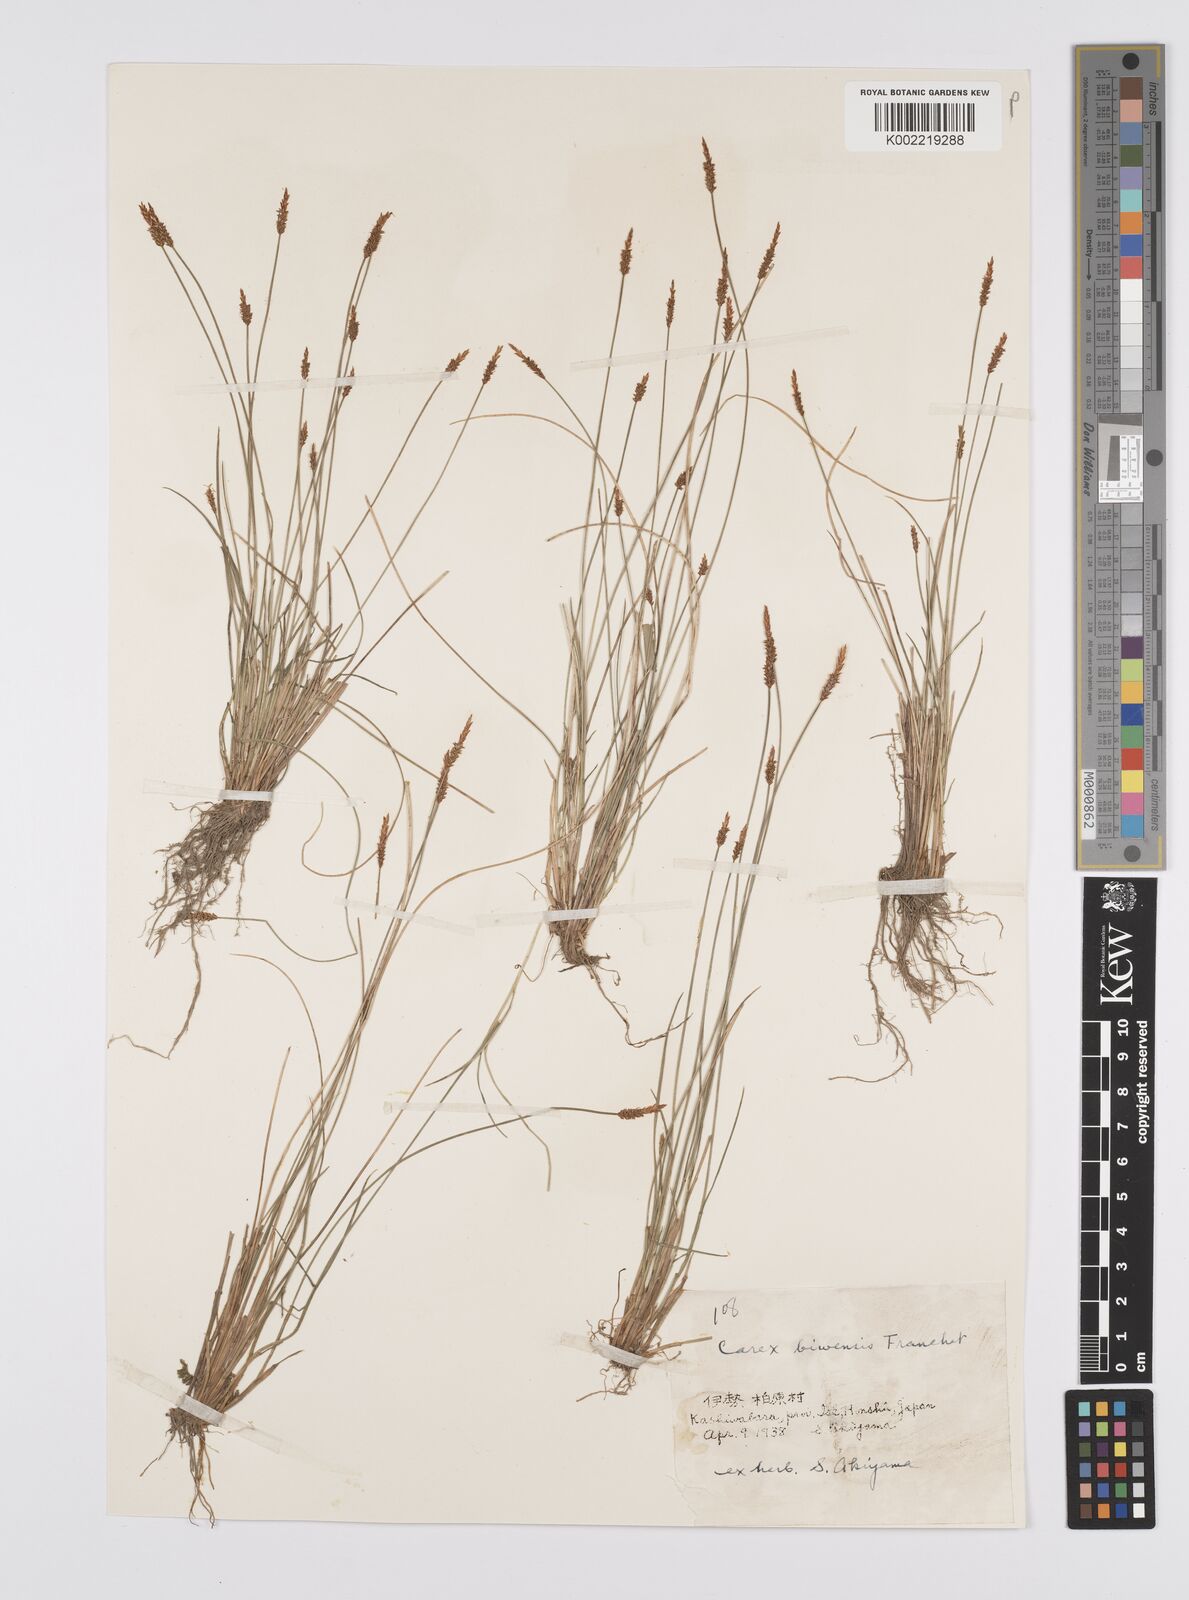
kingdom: Plantae
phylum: Tracheophyta
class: Liliopsida
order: Poales
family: Cyperaceae
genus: Carex
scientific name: Carex rara
